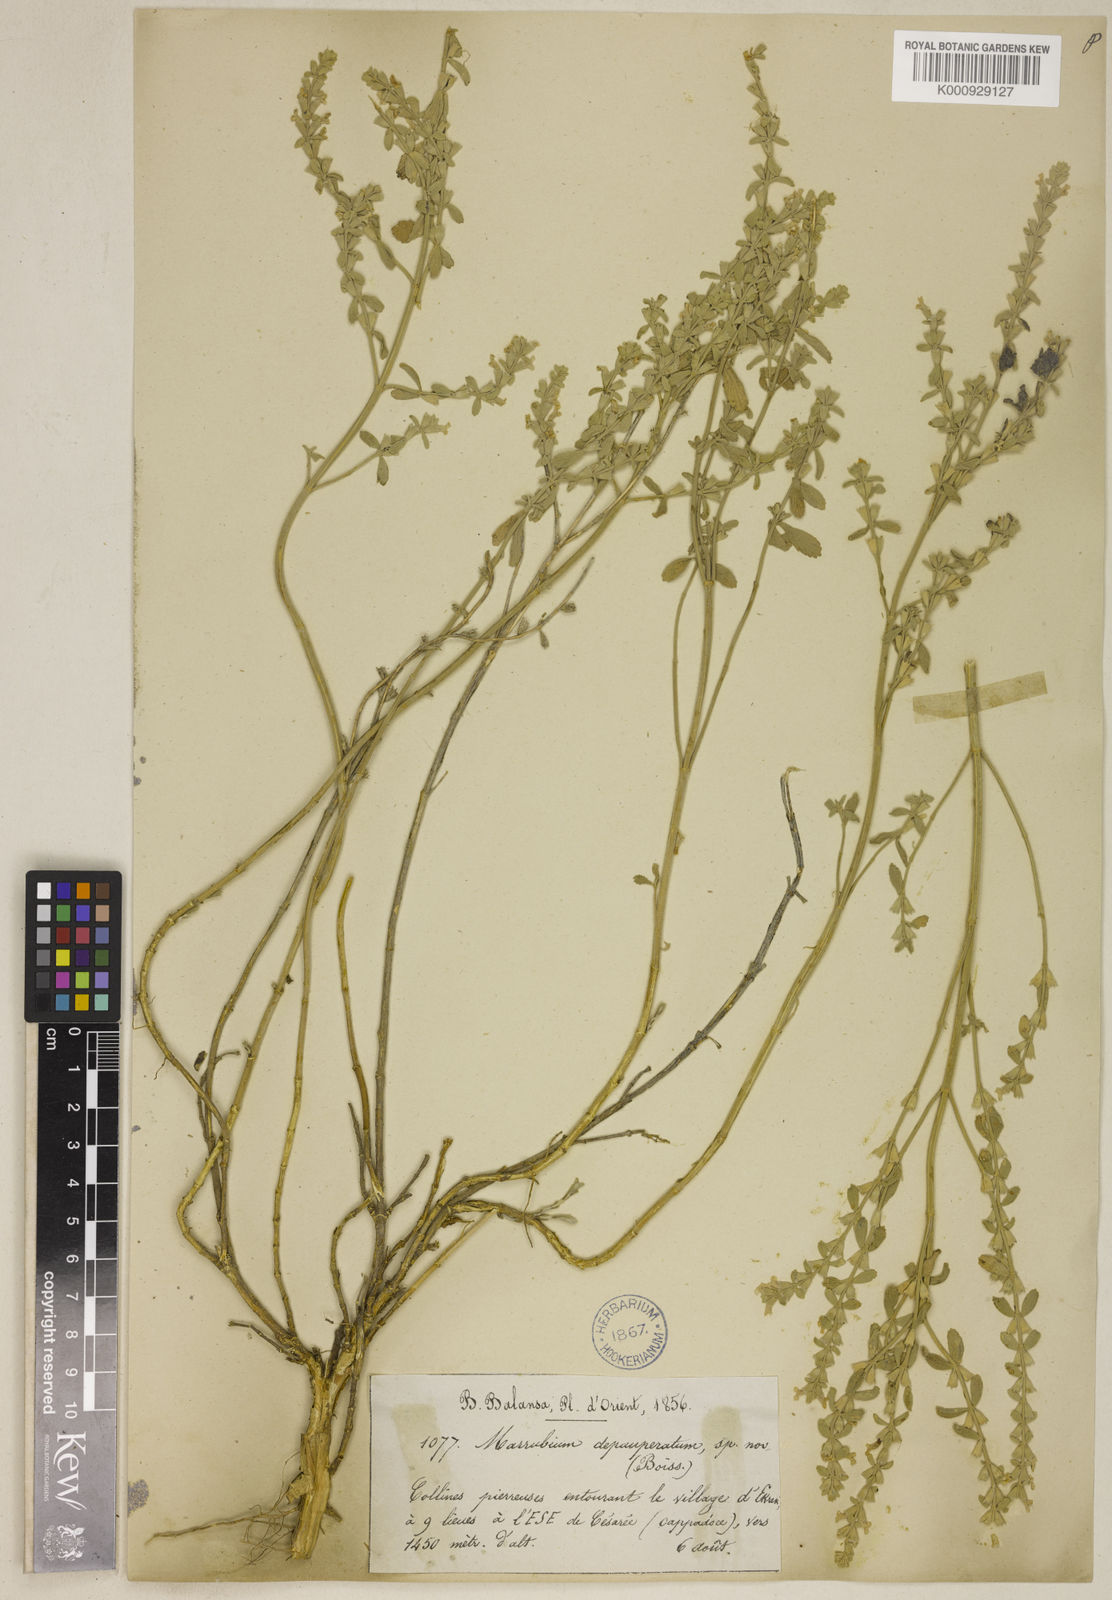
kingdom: Plantae
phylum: Tracheophyta
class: Magnoliopsida
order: Lamiales
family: Lamiaceae
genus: Marrubium
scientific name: Marrubium depauperatum
